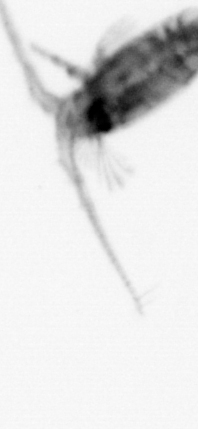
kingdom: Animalia
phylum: Arthropoda
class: Copepoda
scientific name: Copepoda
